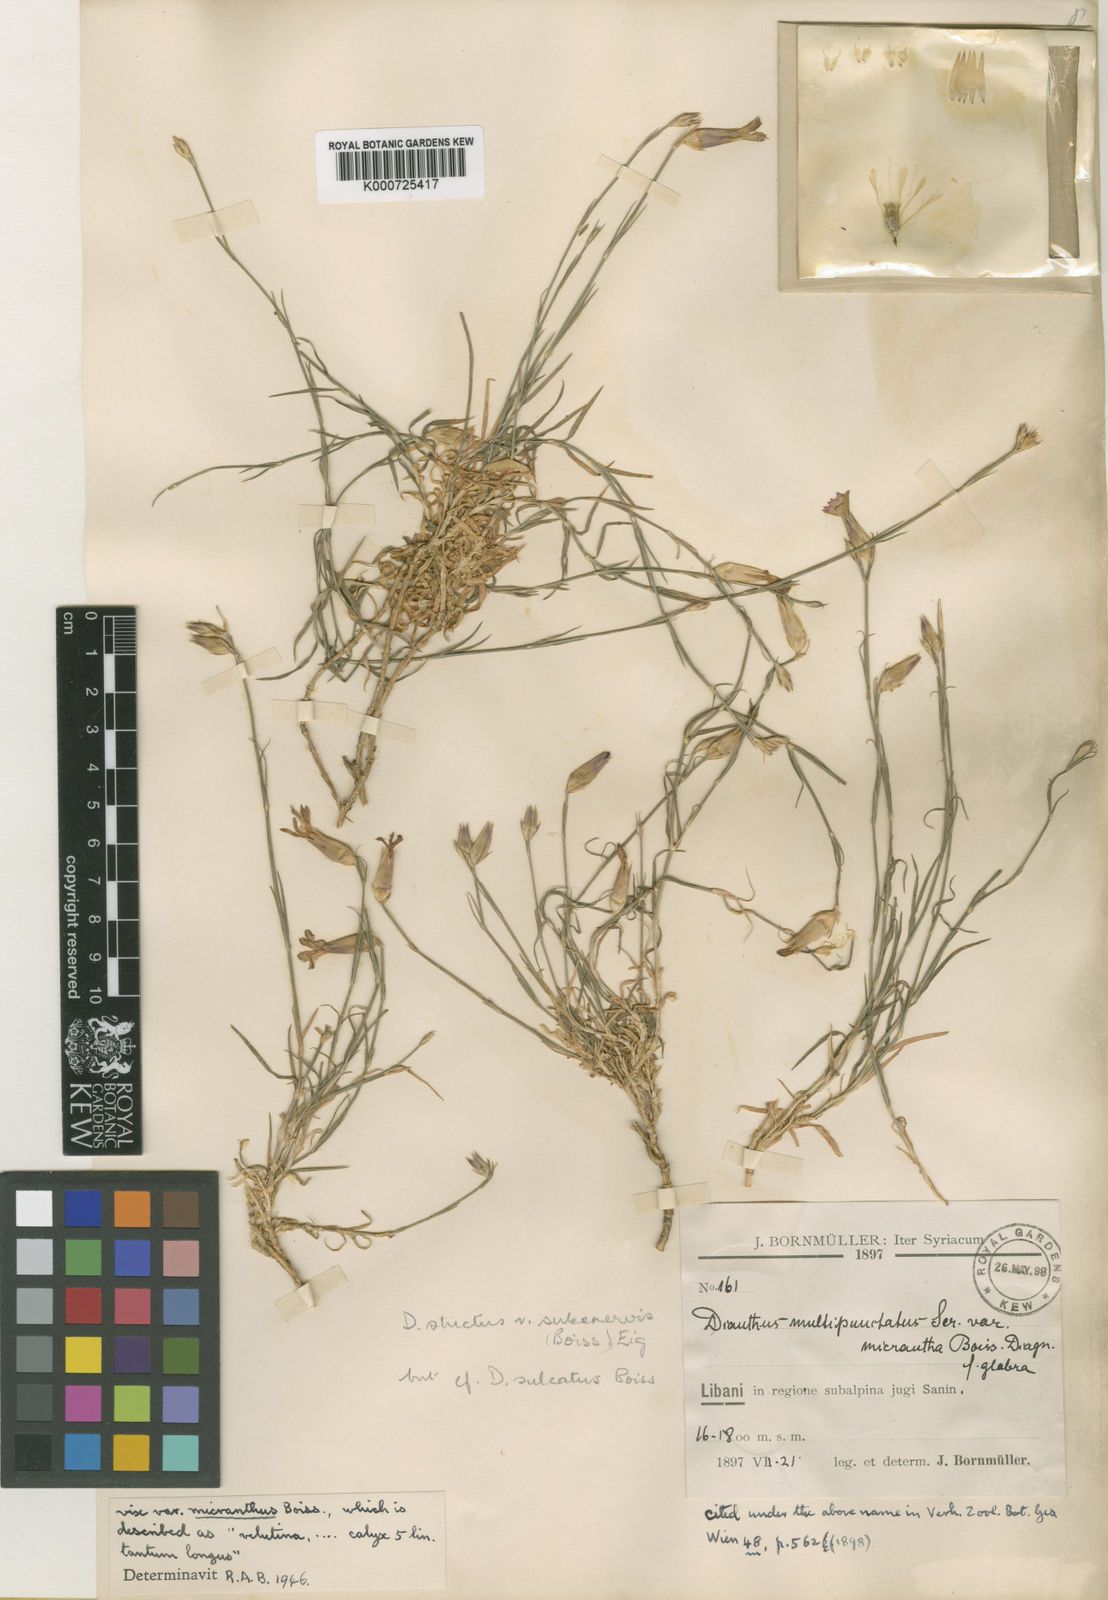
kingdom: Plantae
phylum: Tracheophyta
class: Magnoliopsida
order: Caryophyllales
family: Caryophyllaceae
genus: Dianthus
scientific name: Dianthus strictus
